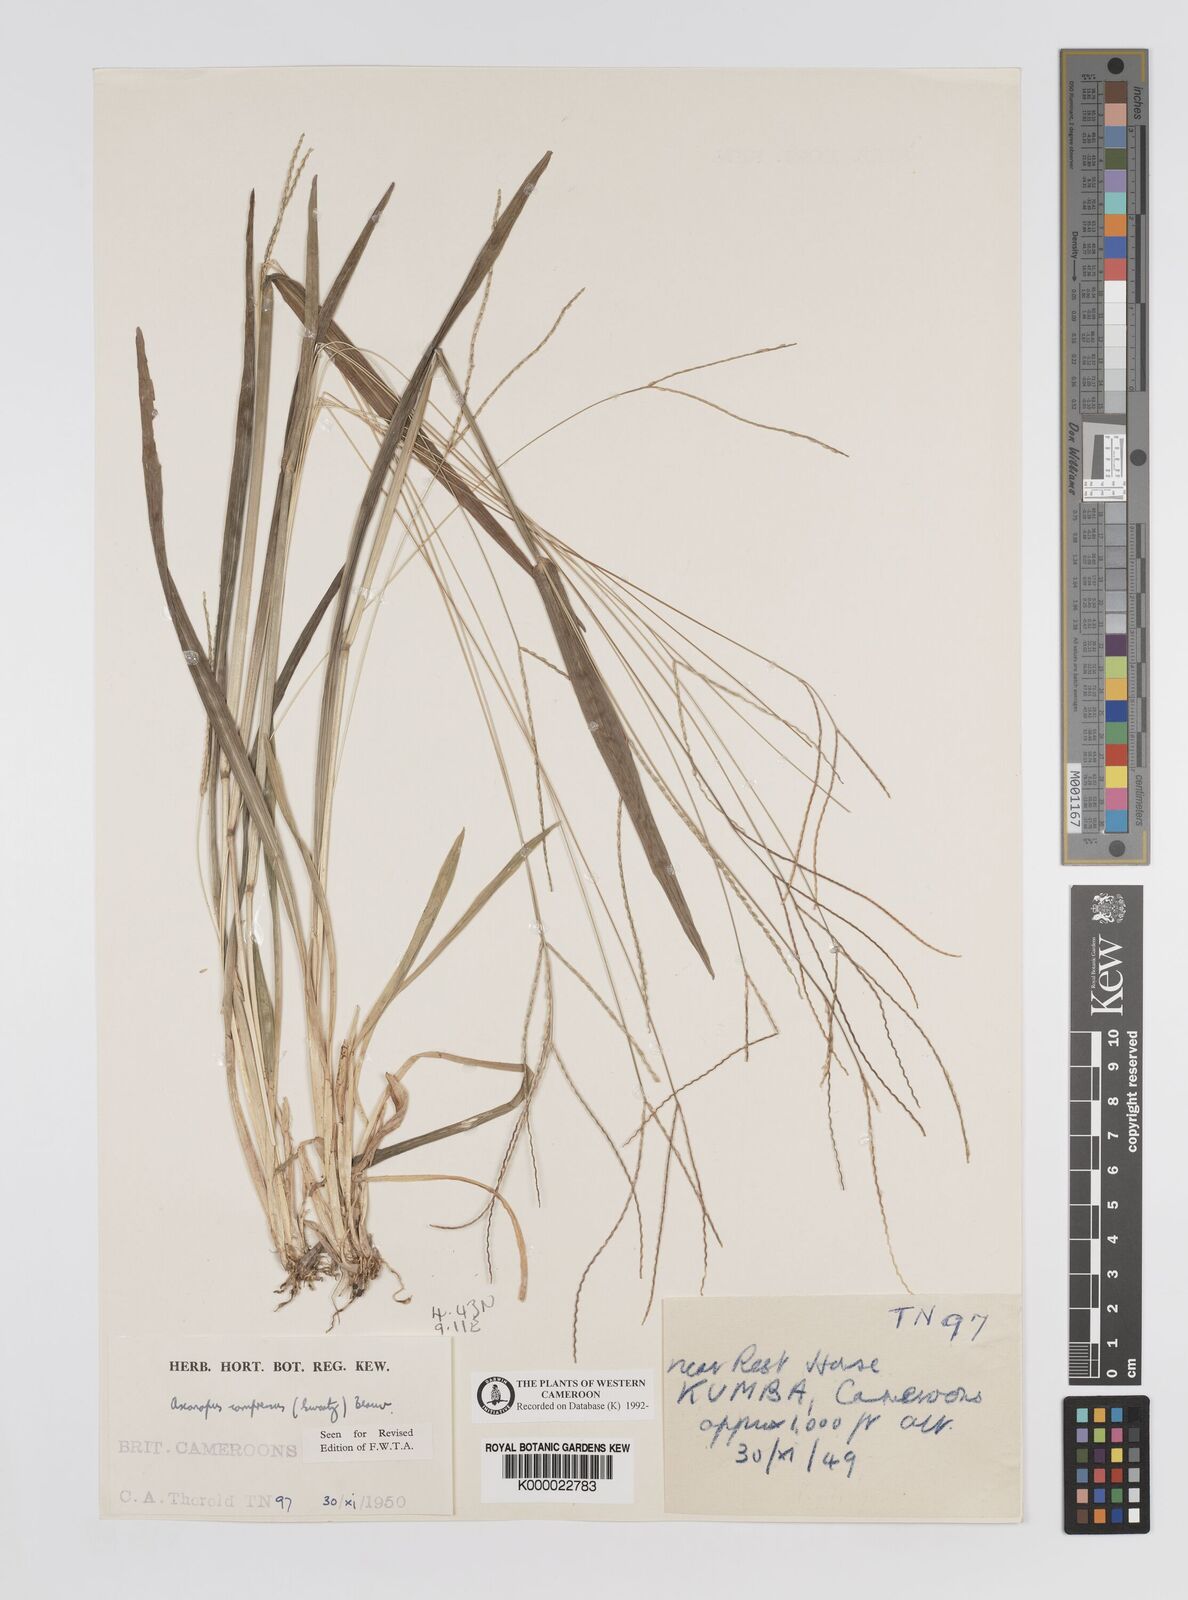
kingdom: Plantae
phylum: Tracheophyta
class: Liliopsida
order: Poales
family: Poaceae
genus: Axonopus
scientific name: Axonopus compressus
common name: American carpet grass
